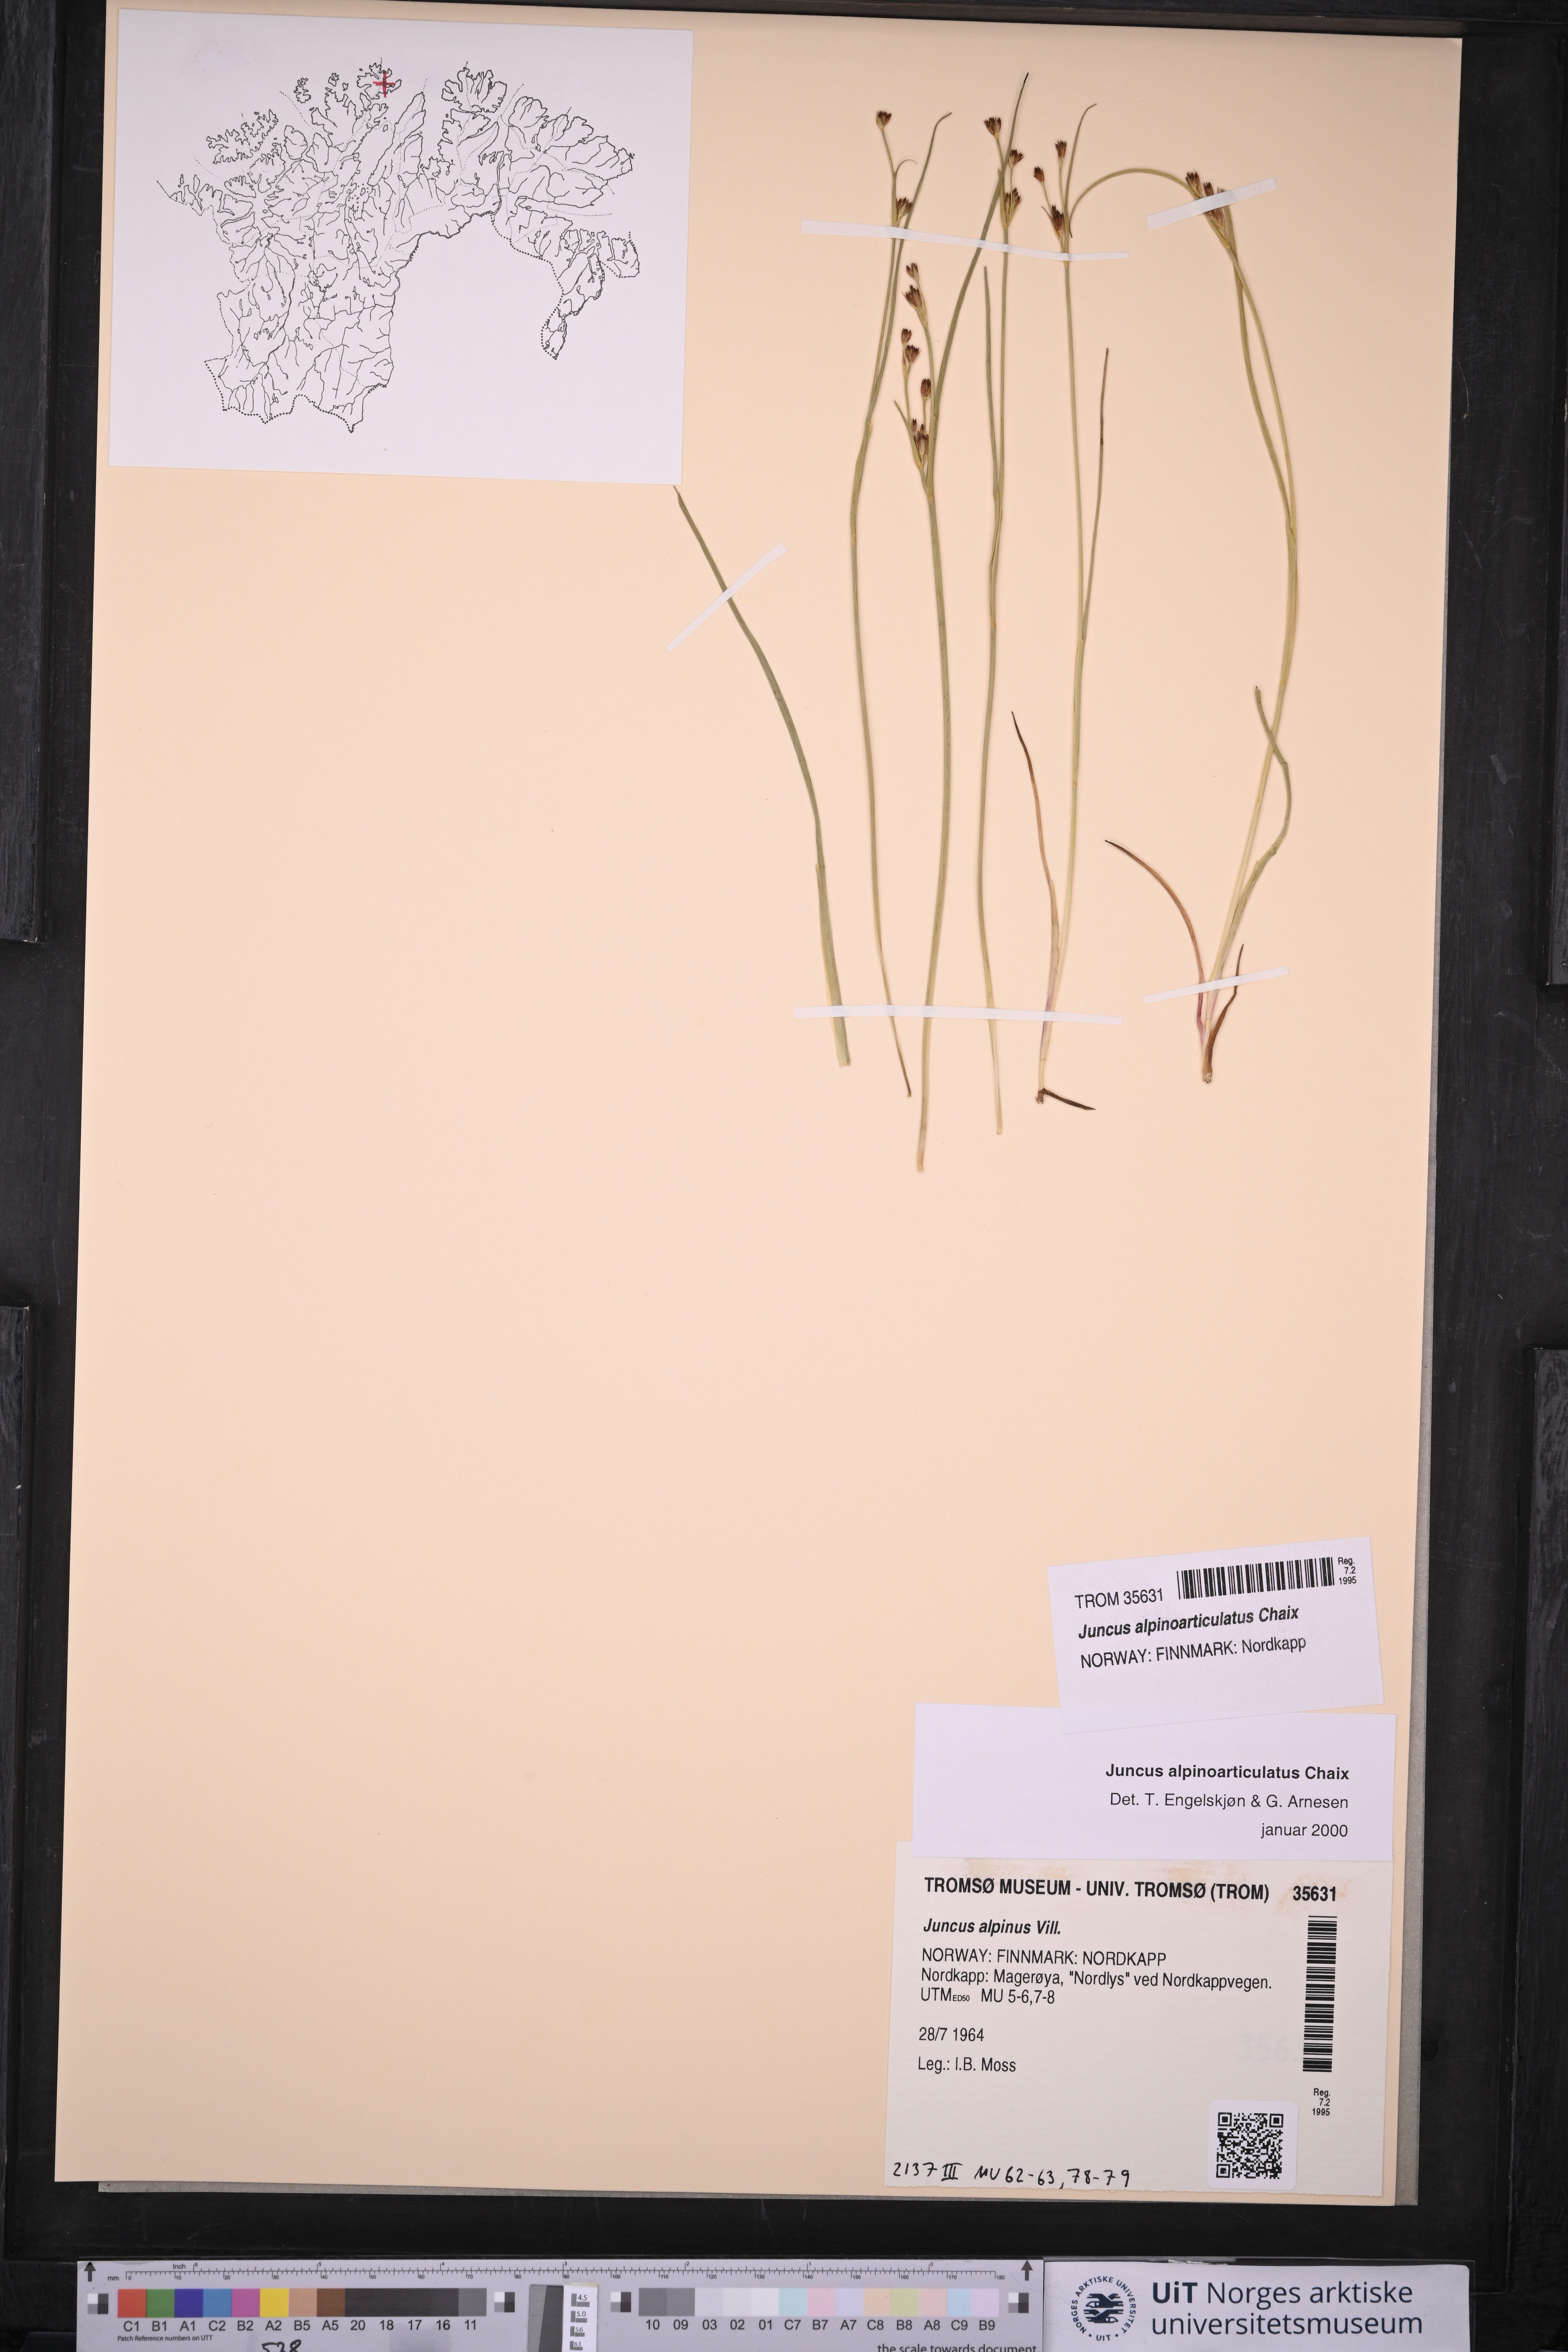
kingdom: Plantae
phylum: Tracheophyta
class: Liliopsida
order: Poales
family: Juncaceae
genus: Juncus
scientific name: Juncus alpinoarticulatus
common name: Alpine rush
